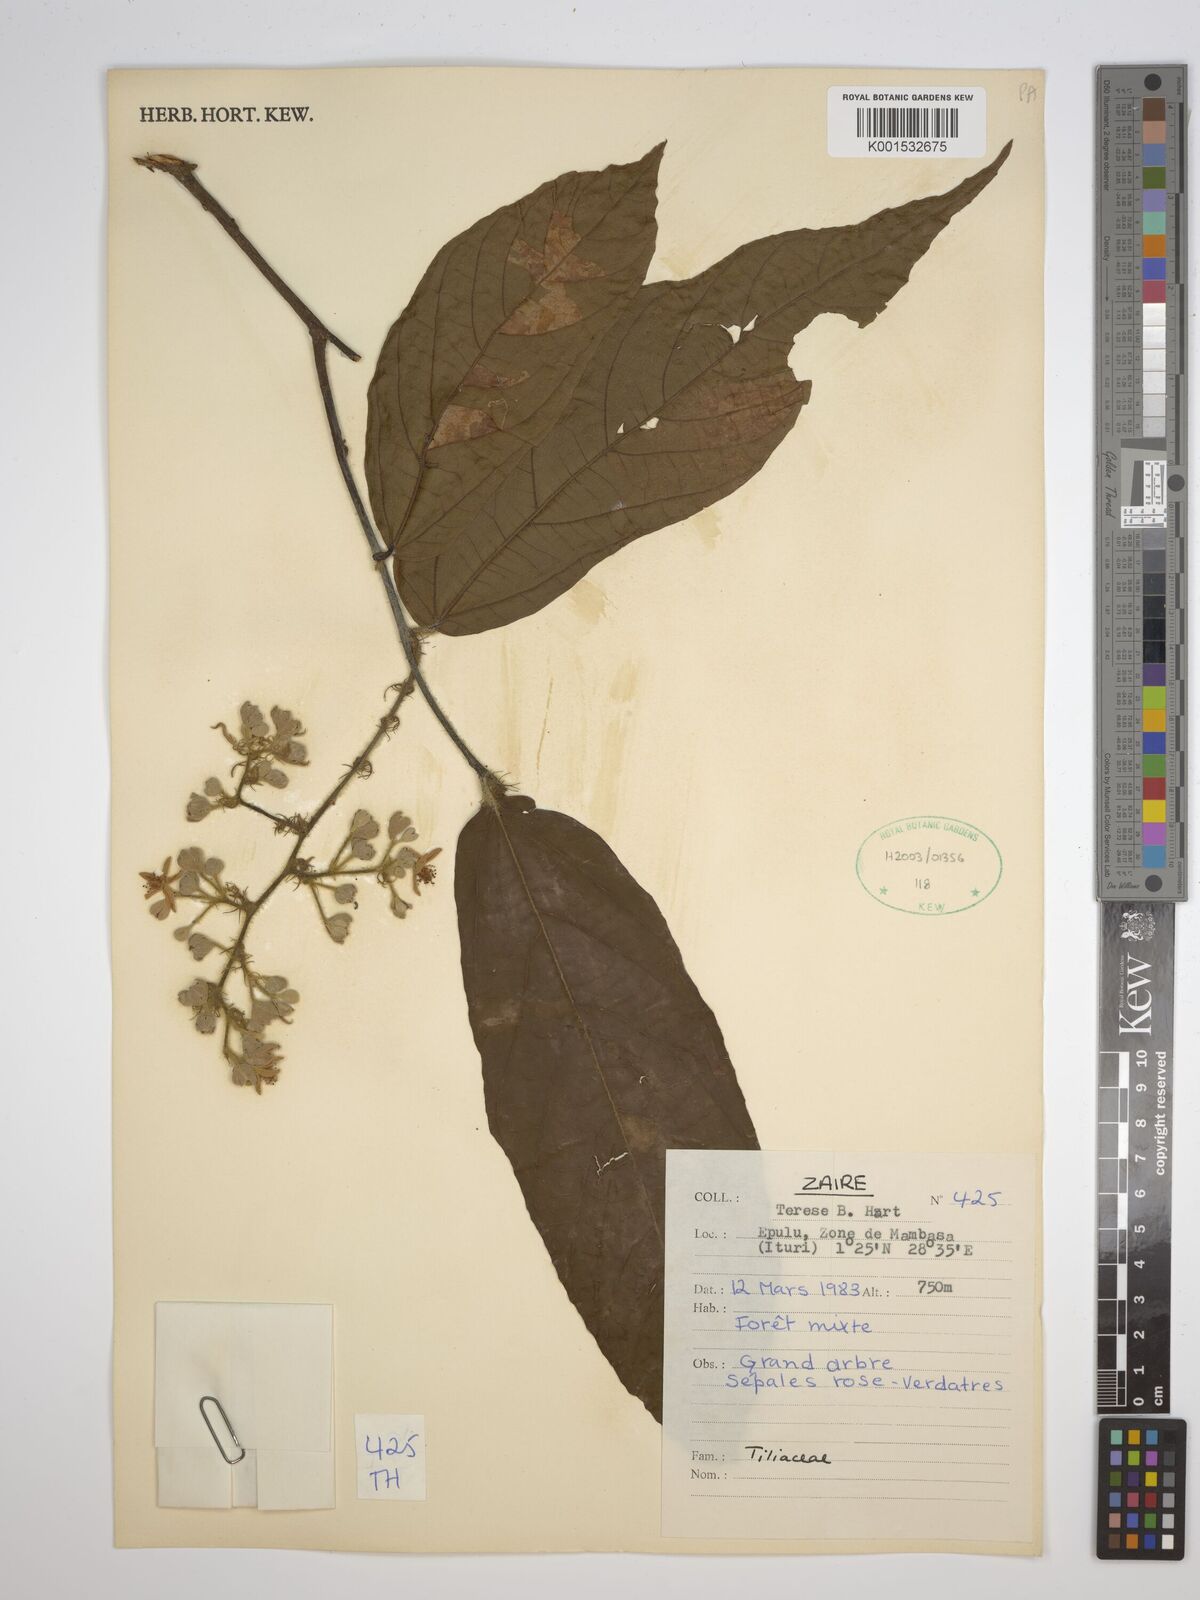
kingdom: Plantae
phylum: Tracheophyta
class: Magnoliopsida
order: Malvales
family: Tiliaceae
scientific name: Tiliaceae
